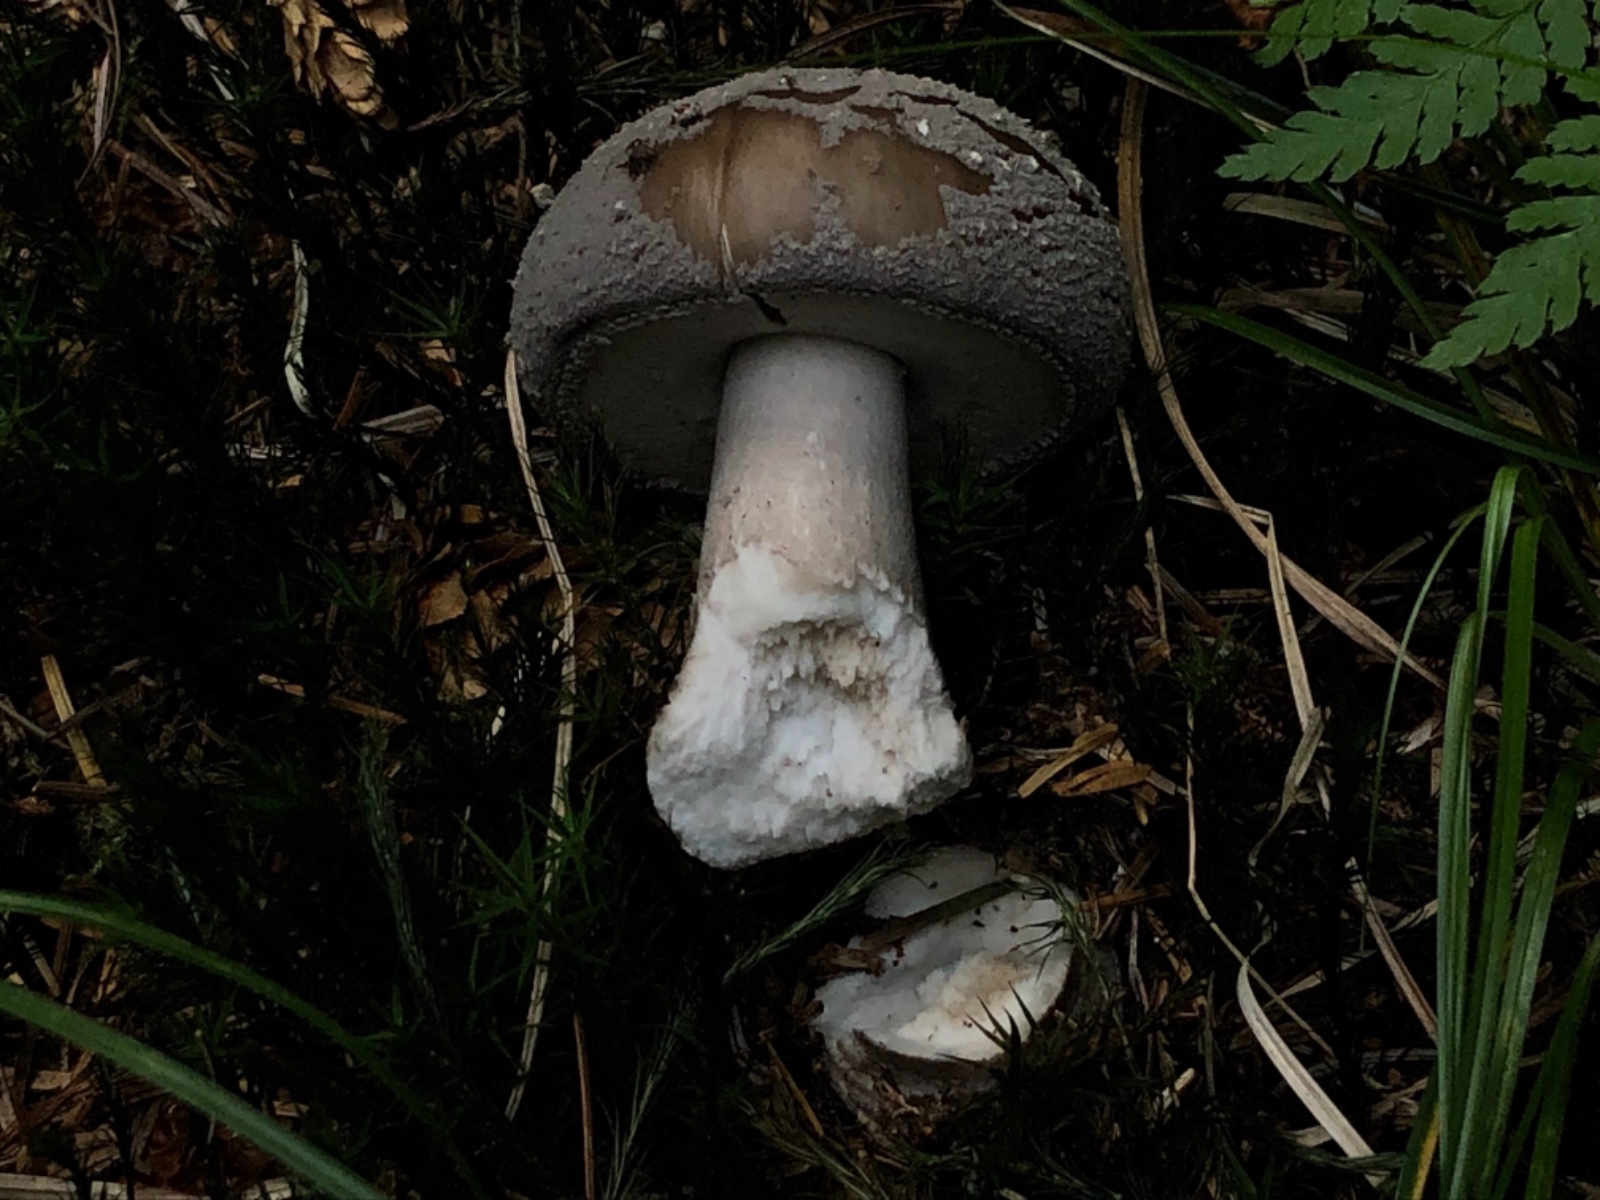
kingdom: Fungi
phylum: Basidiomycota
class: Agaricomycetes
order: Agaricales
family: Amanitaceae
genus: Amanita
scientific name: Amanita
